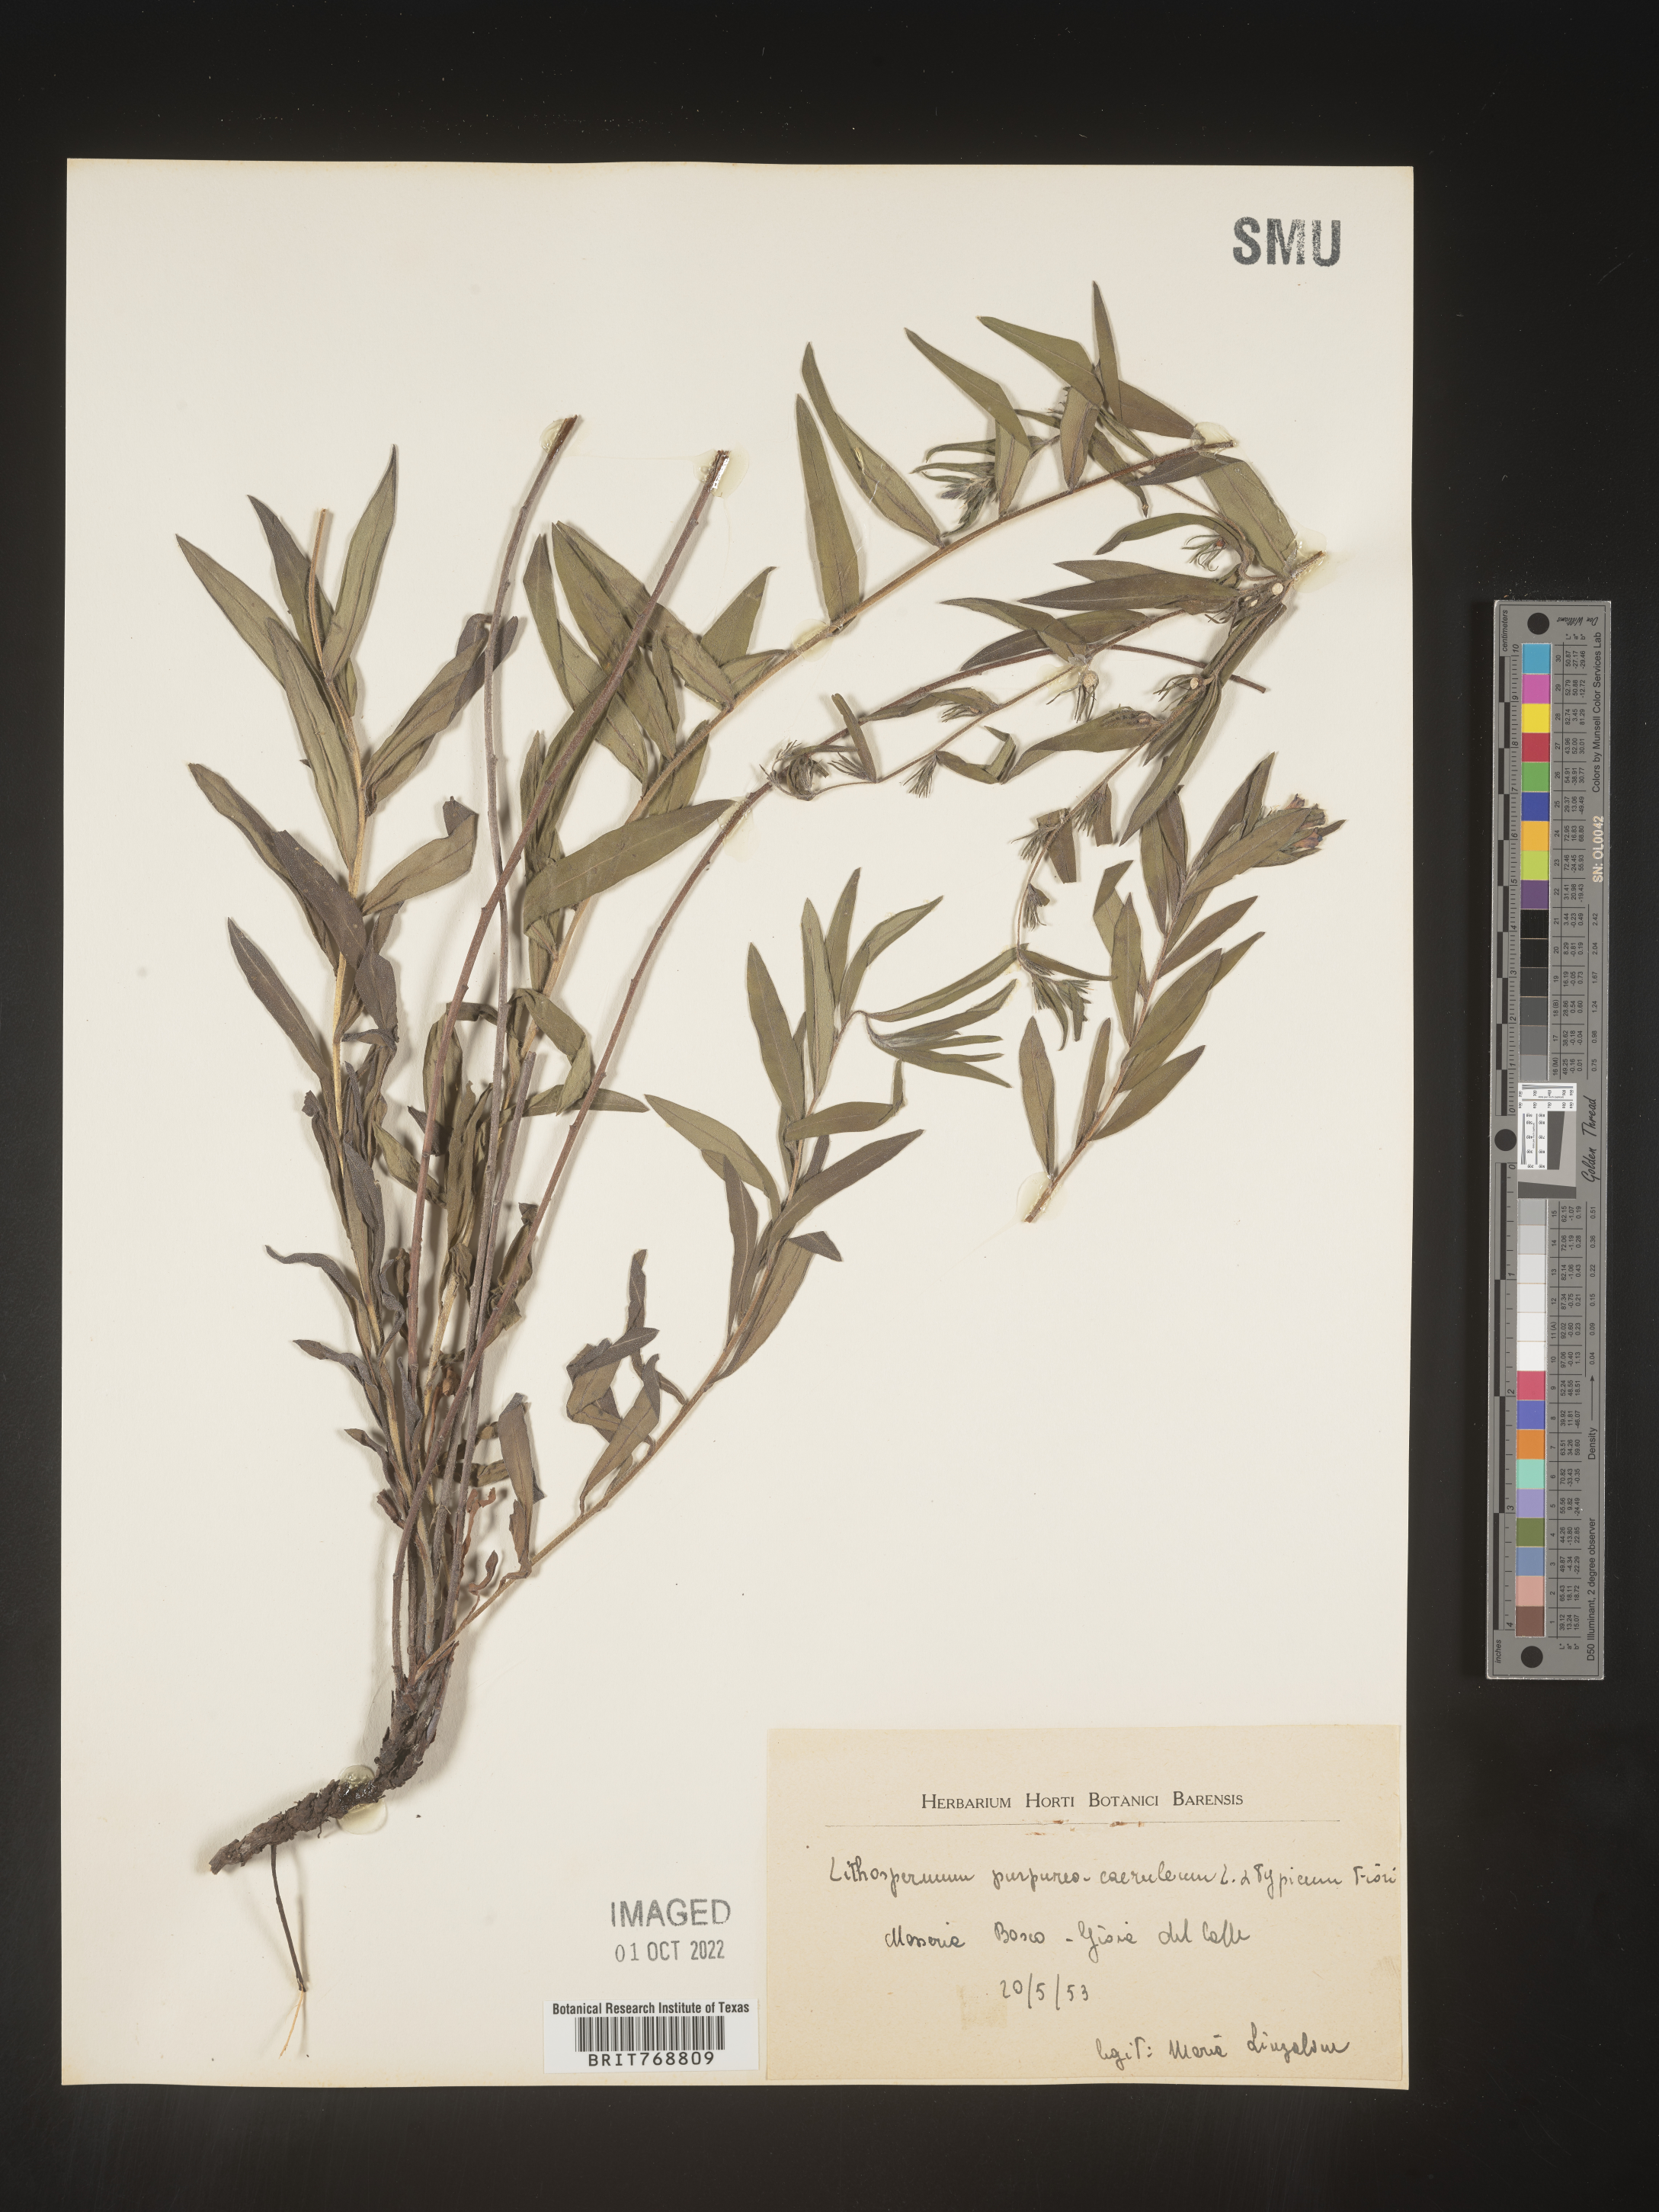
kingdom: Plantae
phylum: Tracheophyta
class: Magnoliopsida
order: Boraginales
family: Boraginaceae
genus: Lithospermum
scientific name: Lithospermum
